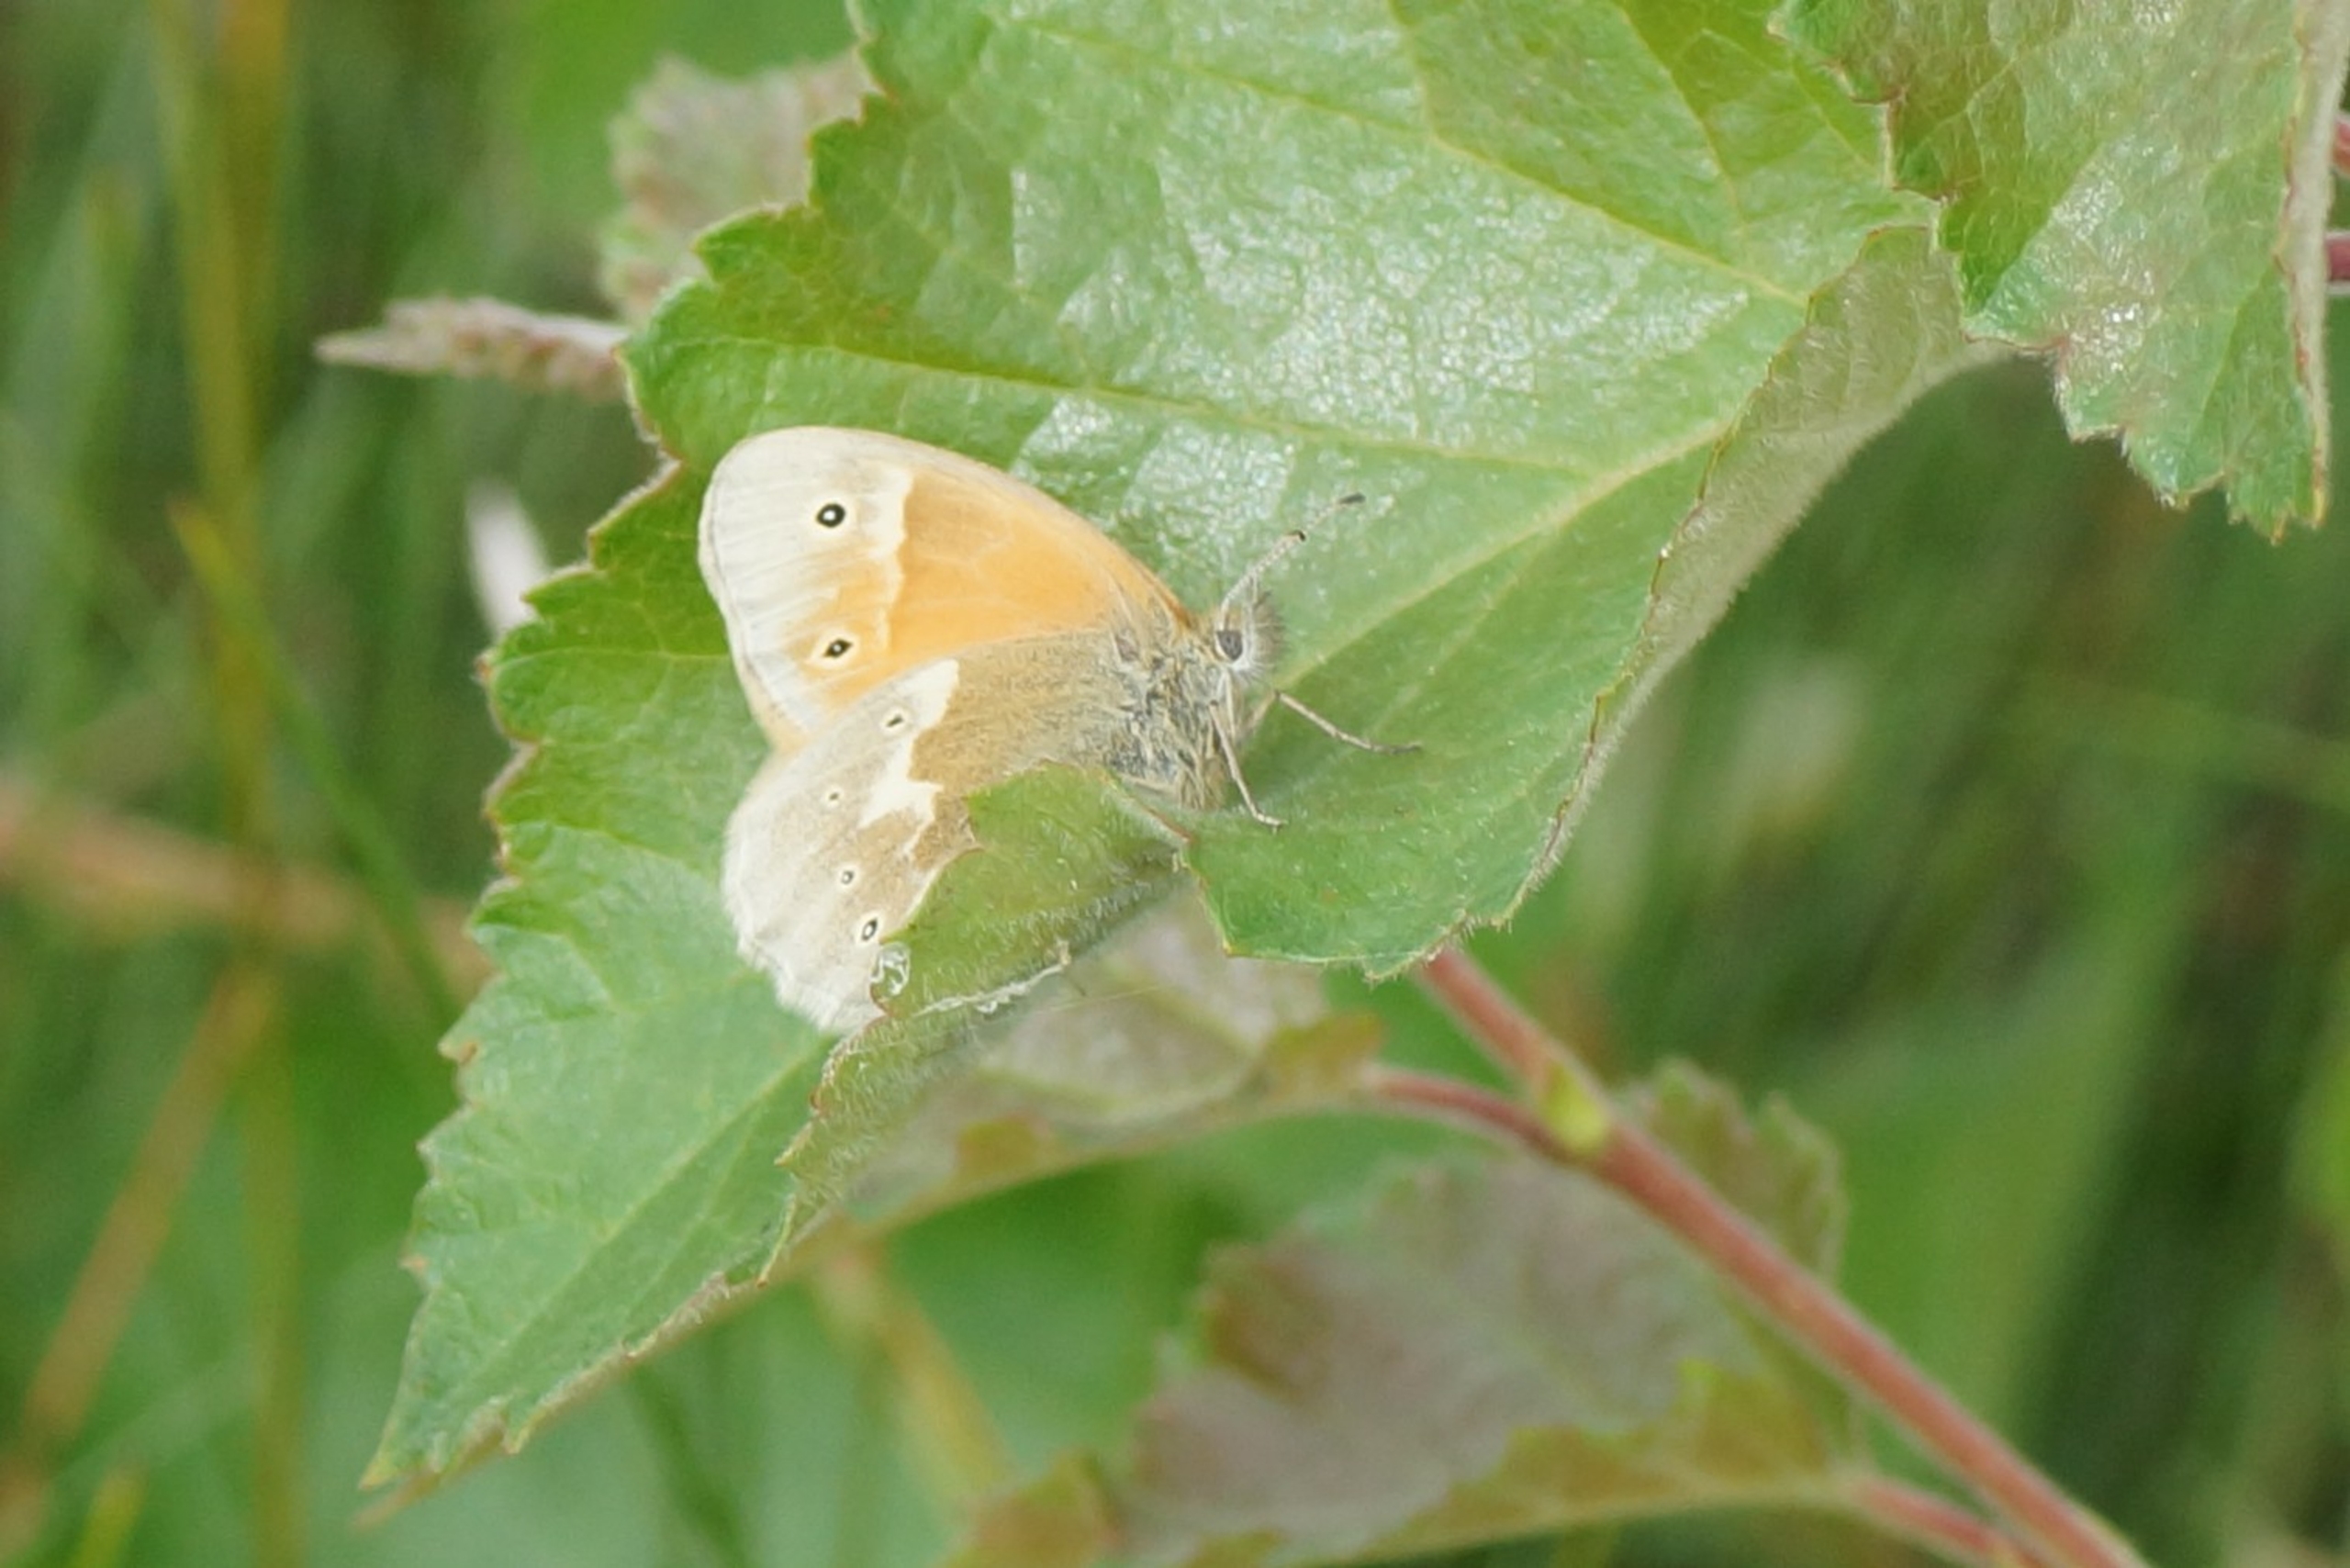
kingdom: Animalia
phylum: Arthropoda
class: Insecta
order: Lepidoptera
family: Nymphalidae
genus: Coenonympha
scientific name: Coenonympha tullia
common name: Moserandøje
